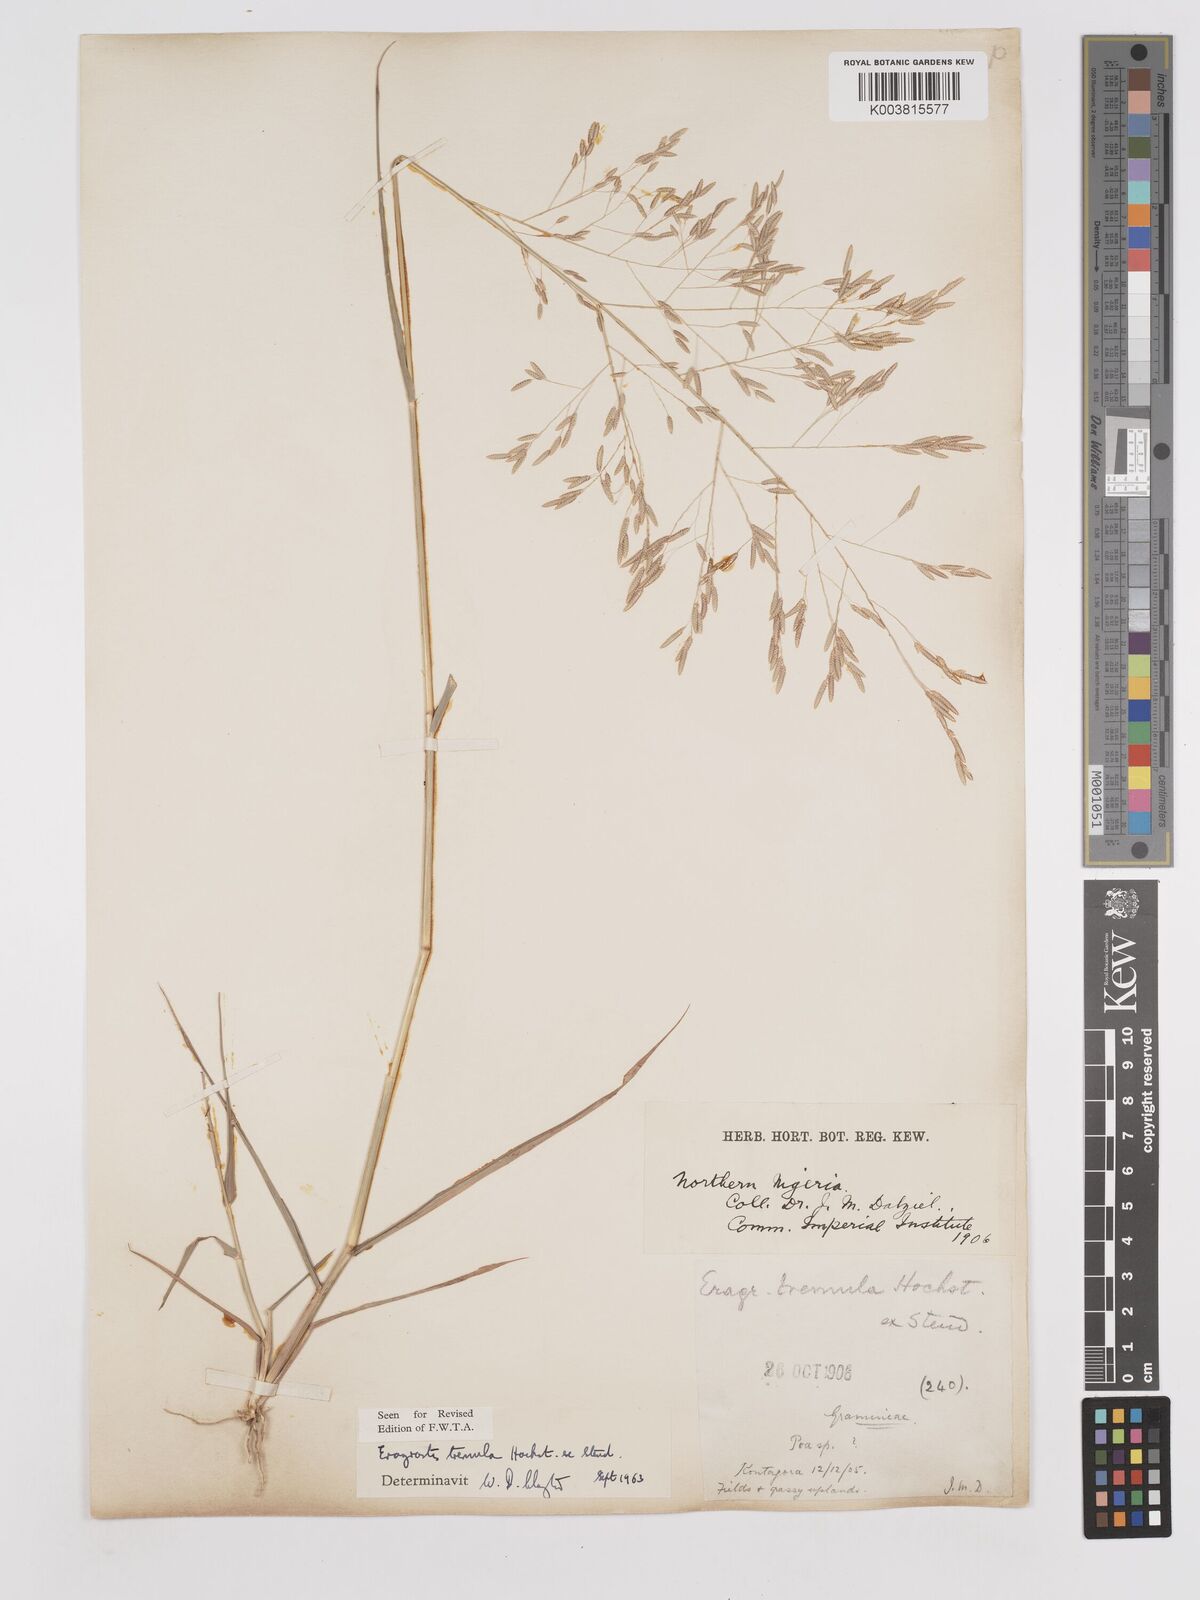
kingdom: Plantae
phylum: Tracheophyta
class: Liliopsida
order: Poales
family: Poaceae
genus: Eragrostis
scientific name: Eragrostis tremula
